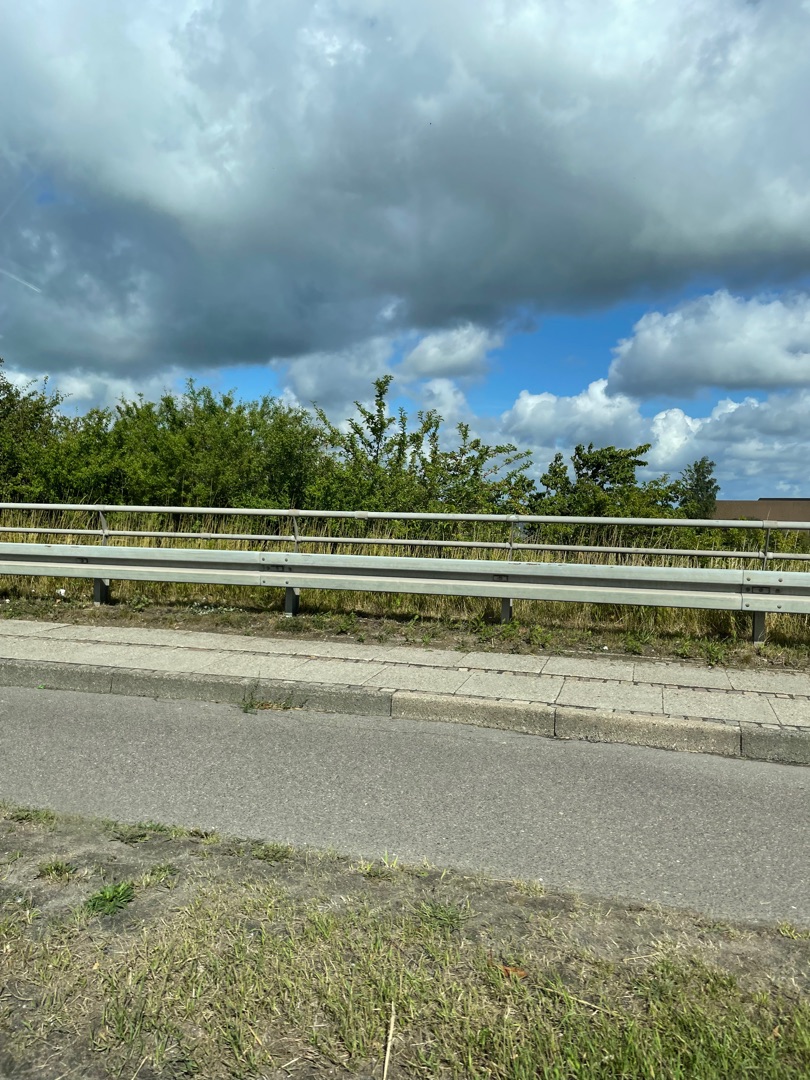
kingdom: Plantae
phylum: Tracheophyta
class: Magnoliopsida
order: Apiales
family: Apiaceae
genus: Heracleum
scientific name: Heracleum mantegazzianum
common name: Kæmpe-bjørneklo
